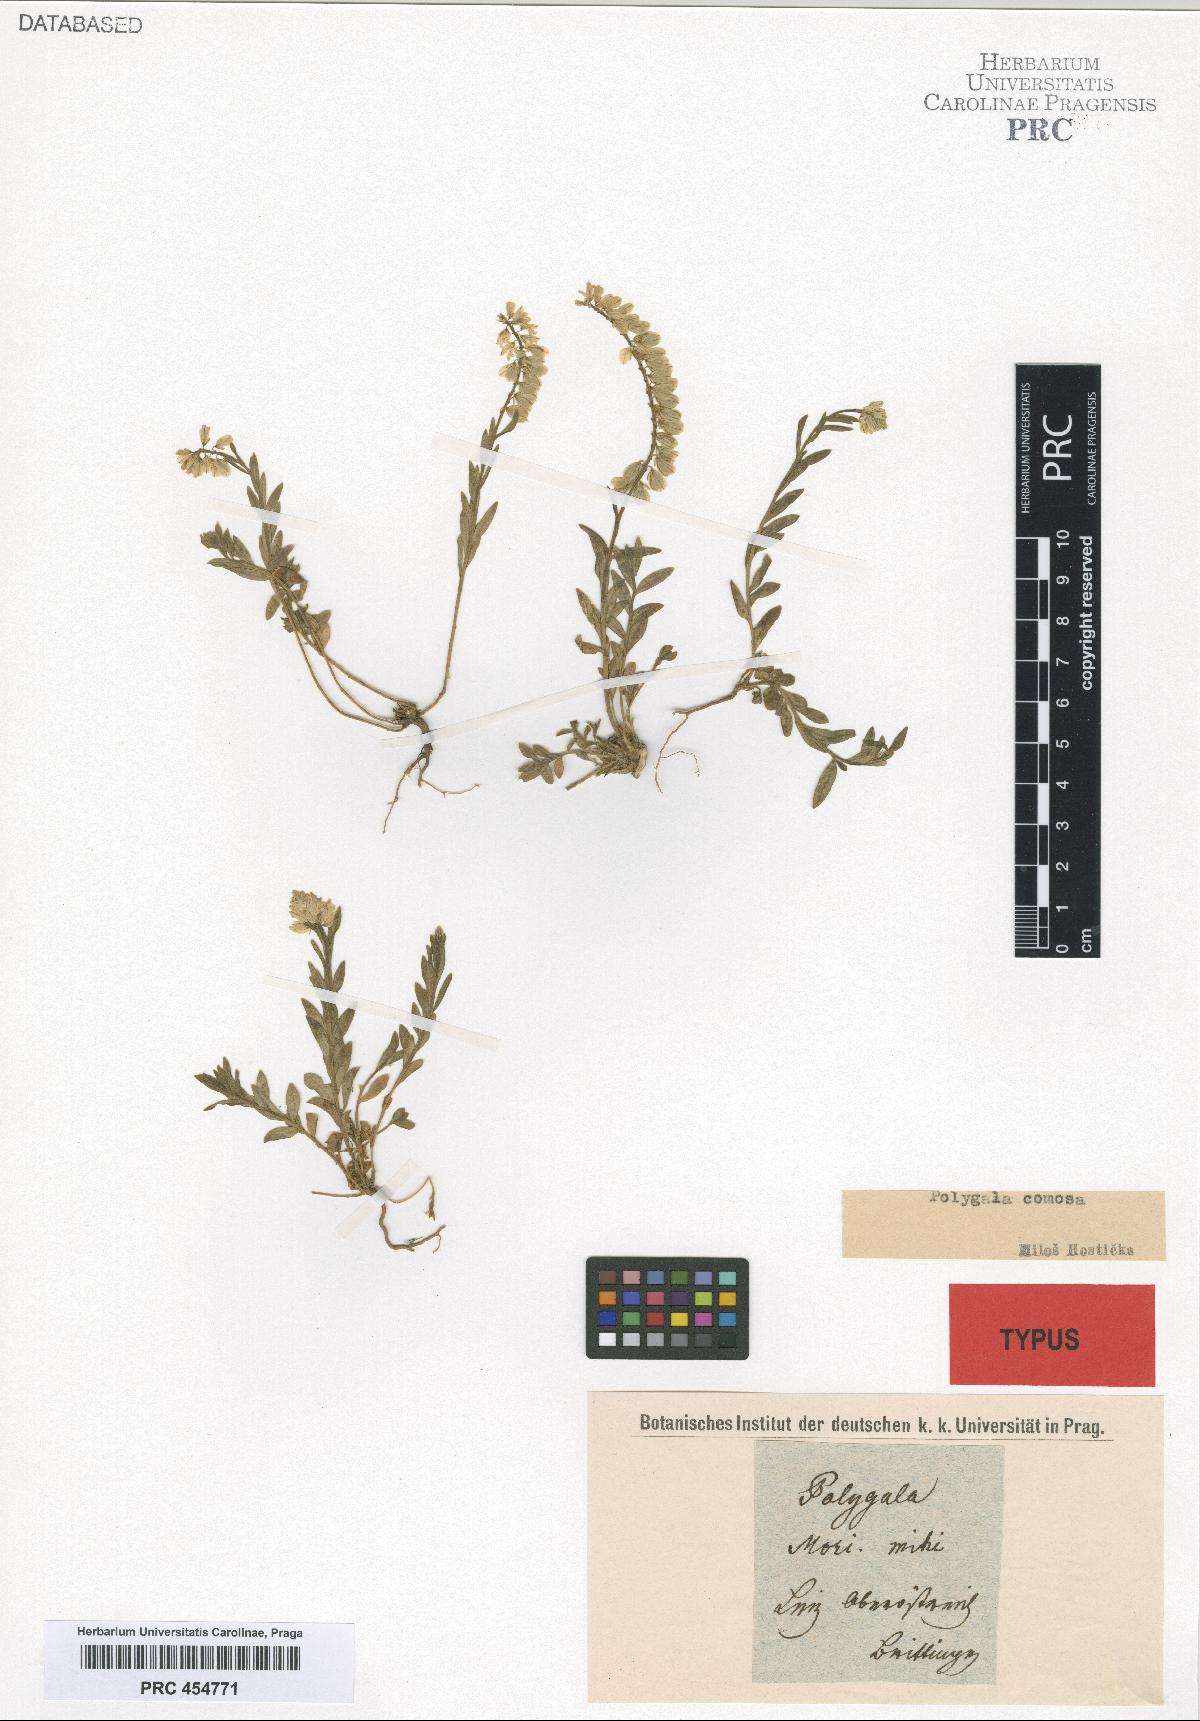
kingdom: Plantae
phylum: Tracheophyta
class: Magnoliopsida
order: Fabales
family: Polygalaceae
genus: Polygala
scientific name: Polygala comosa
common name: Tufted milkwort
